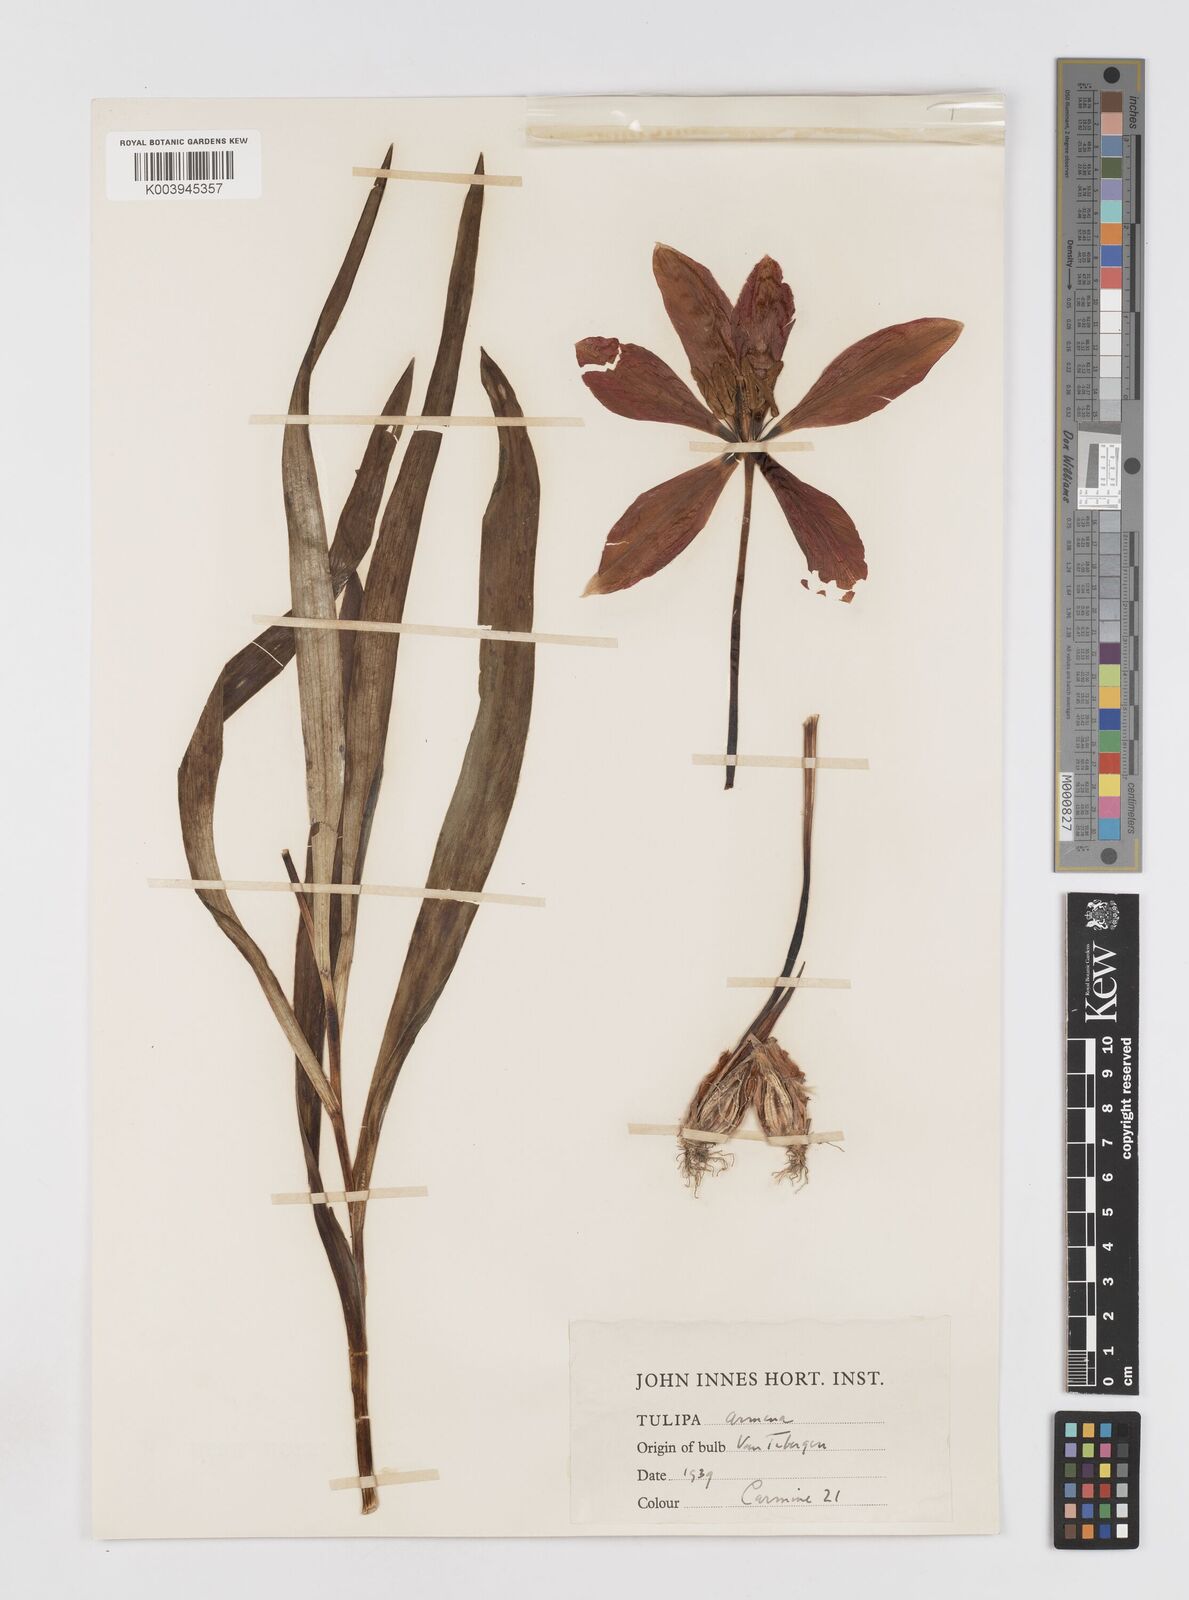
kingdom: Plantae
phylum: Tracheophyta
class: Liliopsida
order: Liliales
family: Liliaceae
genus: Tulipa
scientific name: Tulipa
